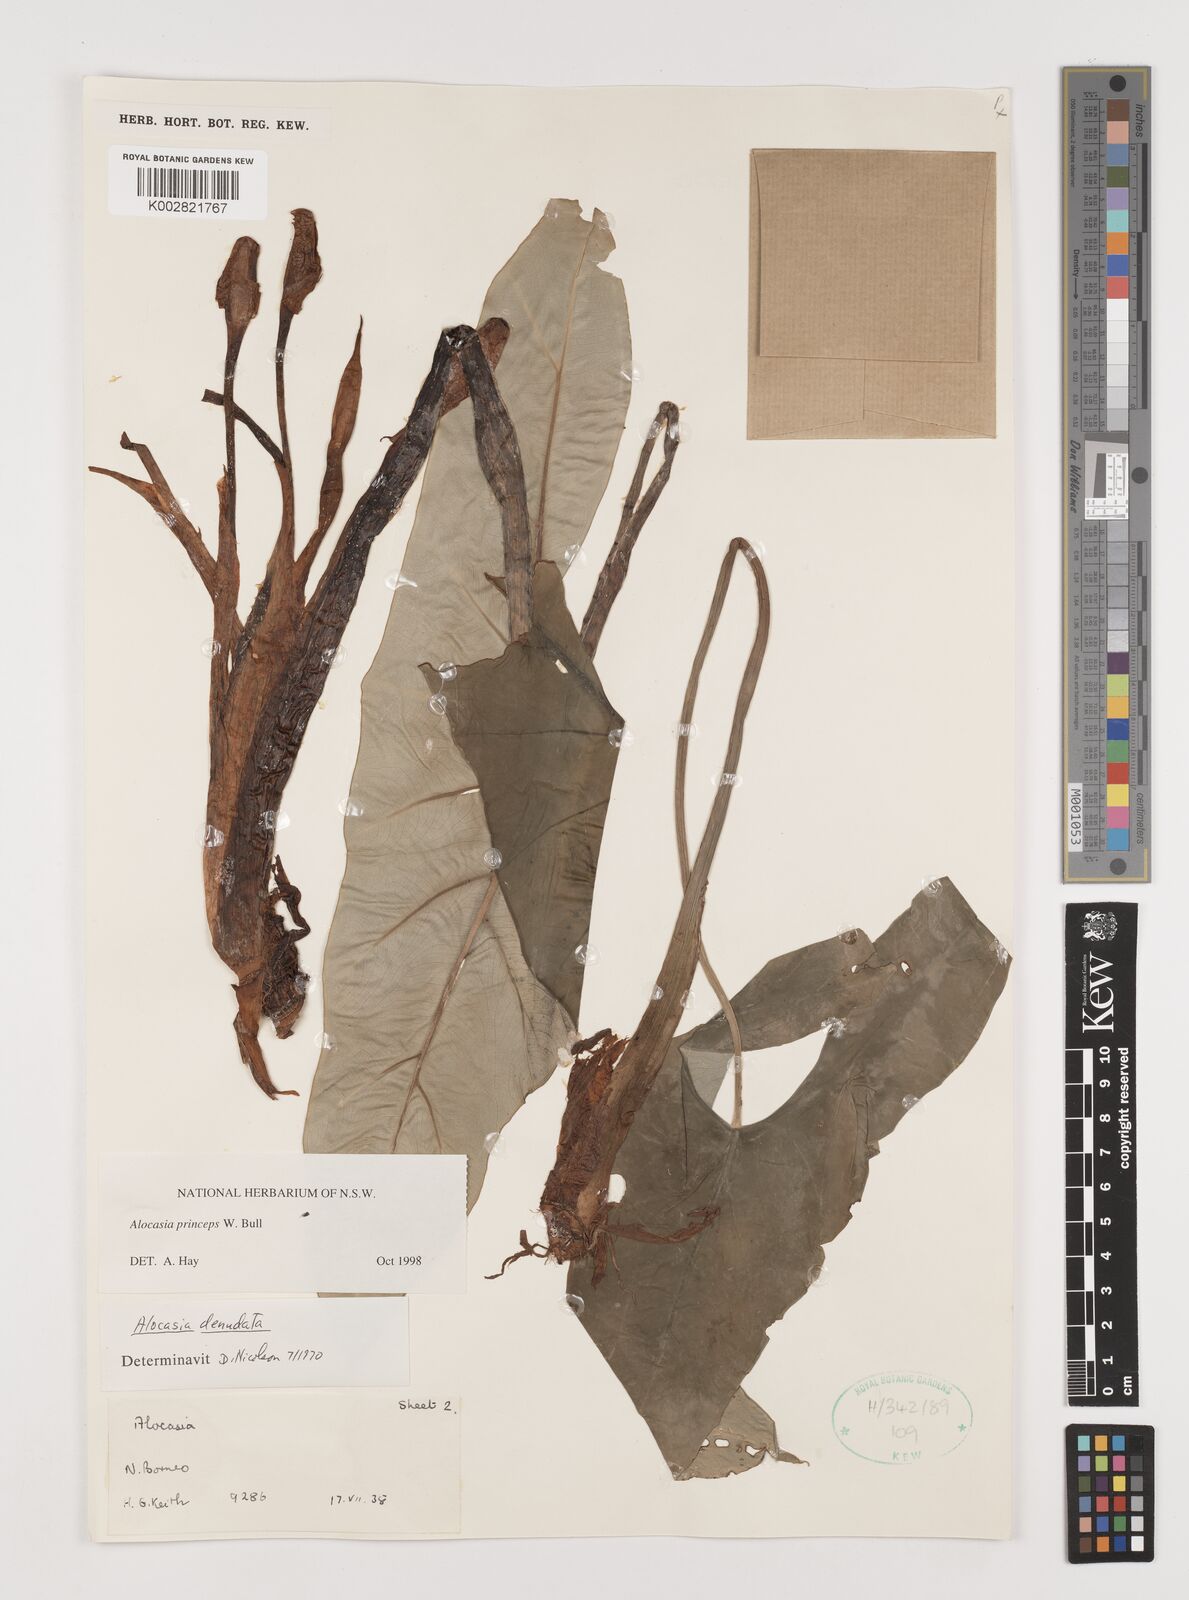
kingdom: Plantae
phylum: Tracheophyta
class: Liliopsida
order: Alismatales
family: Araceae
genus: Alocasia
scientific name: Alocasia princeps
